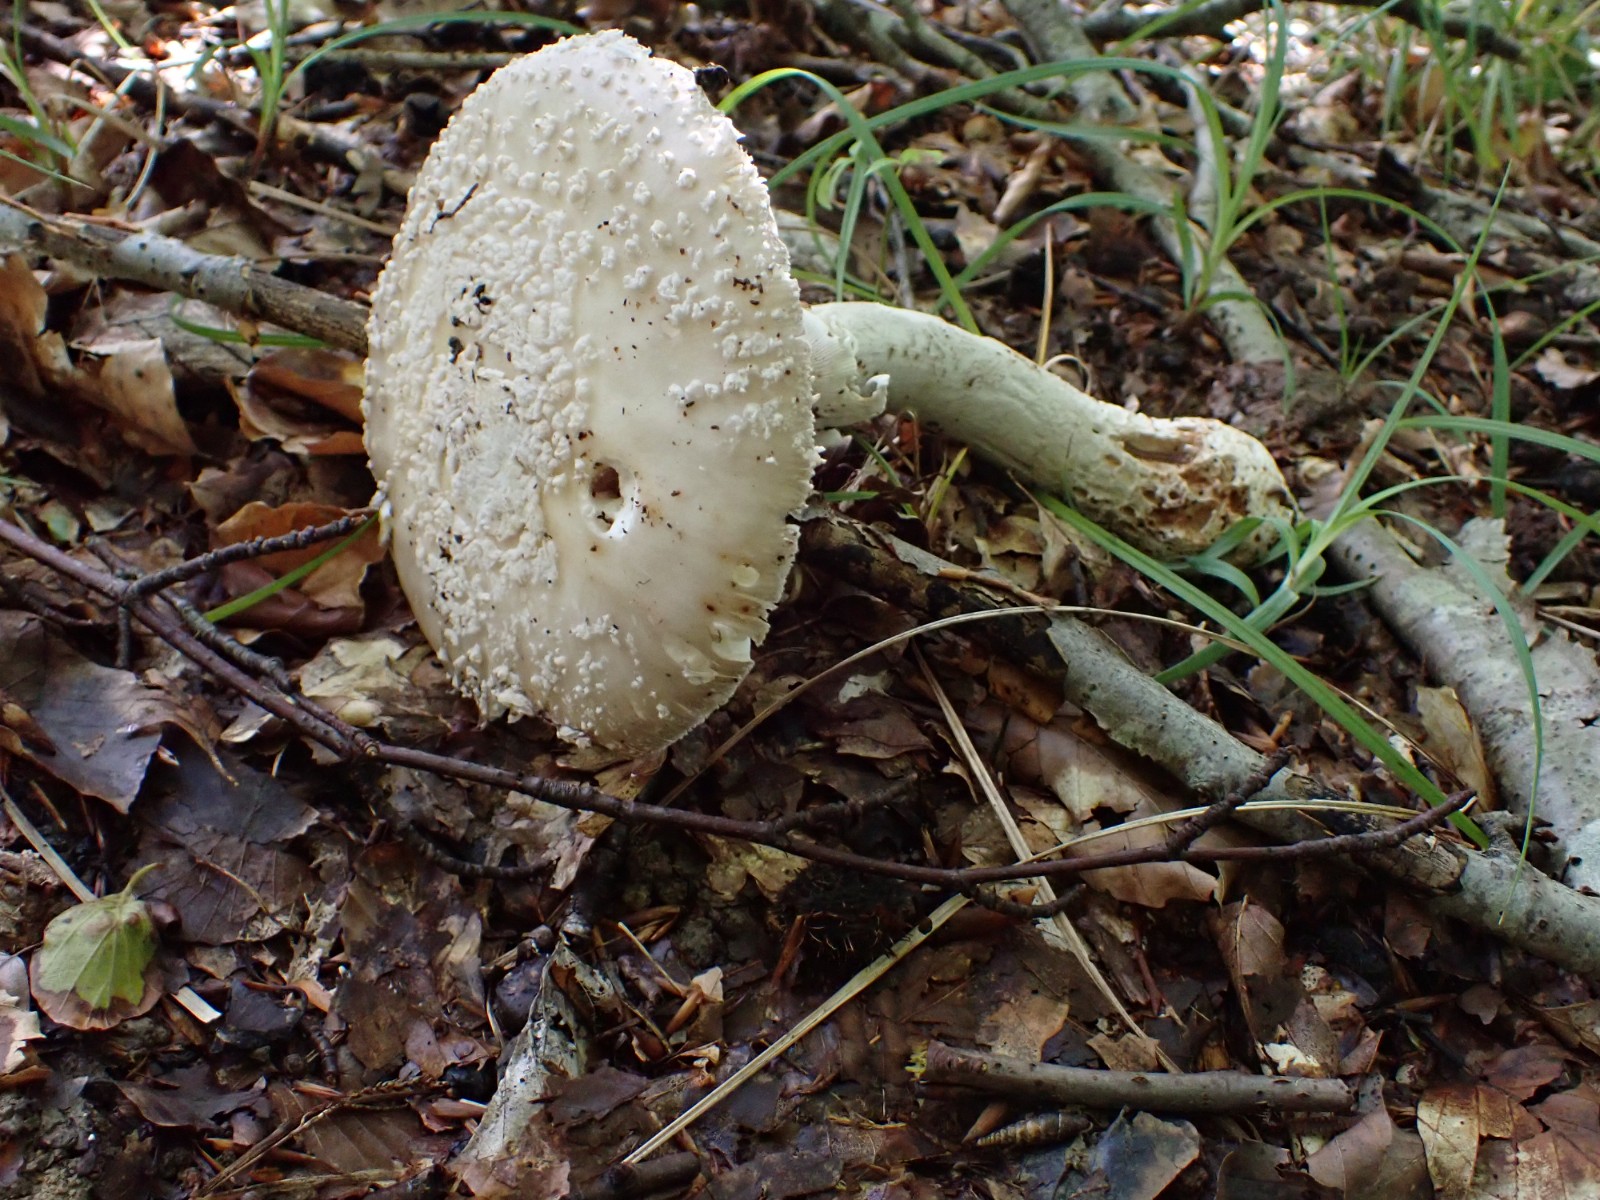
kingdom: Fungi
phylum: Basidiomycota
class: Agaricomycetes
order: Agaricales
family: Amanitaceae
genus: Amanita
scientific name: Amanita
